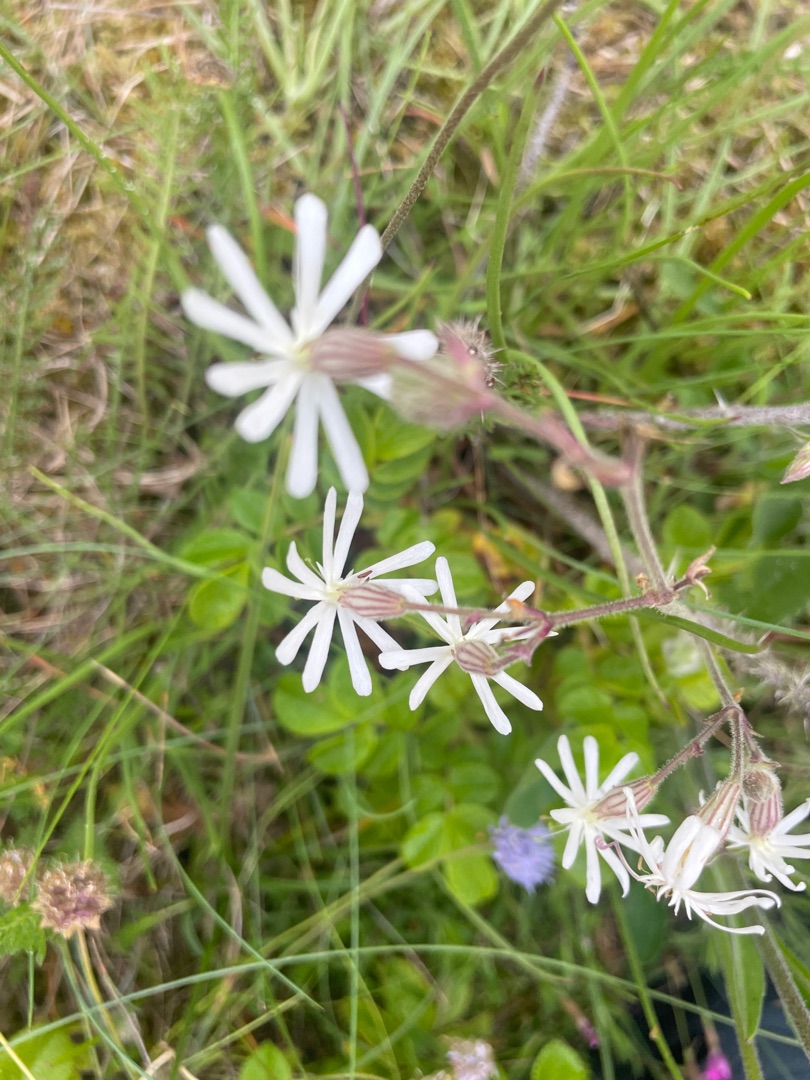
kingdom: Plantae
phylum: Tracheophyta
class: Magnoliopsida
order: Caryophyllales
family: Caryophyllaceae
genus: Silene
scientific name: Silene nutans
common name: Nikkende limurt
